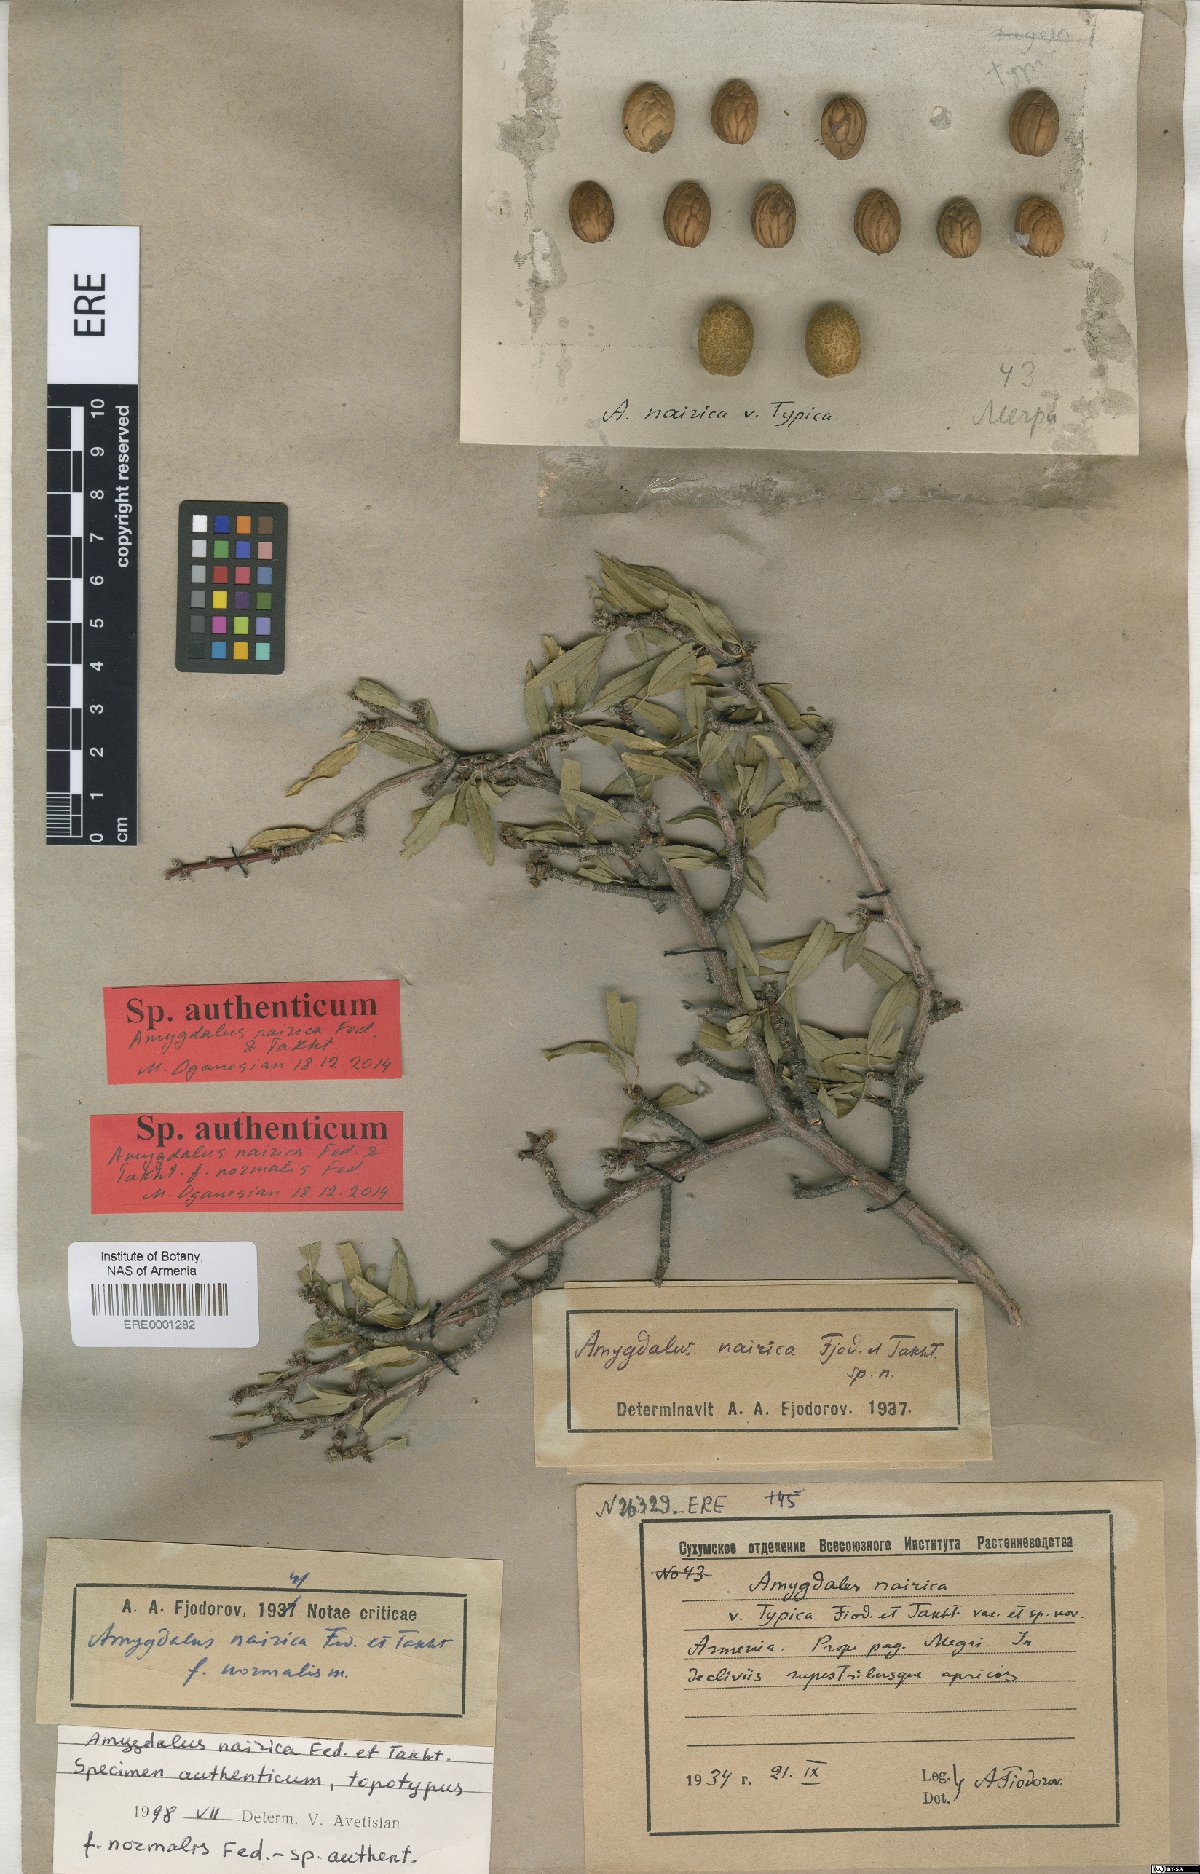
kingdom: Plantae
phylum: Tracheophyta
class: Magnoliopsida
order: Rosales
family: Rosaceae
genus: Prunus
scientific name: Prunus nairica
